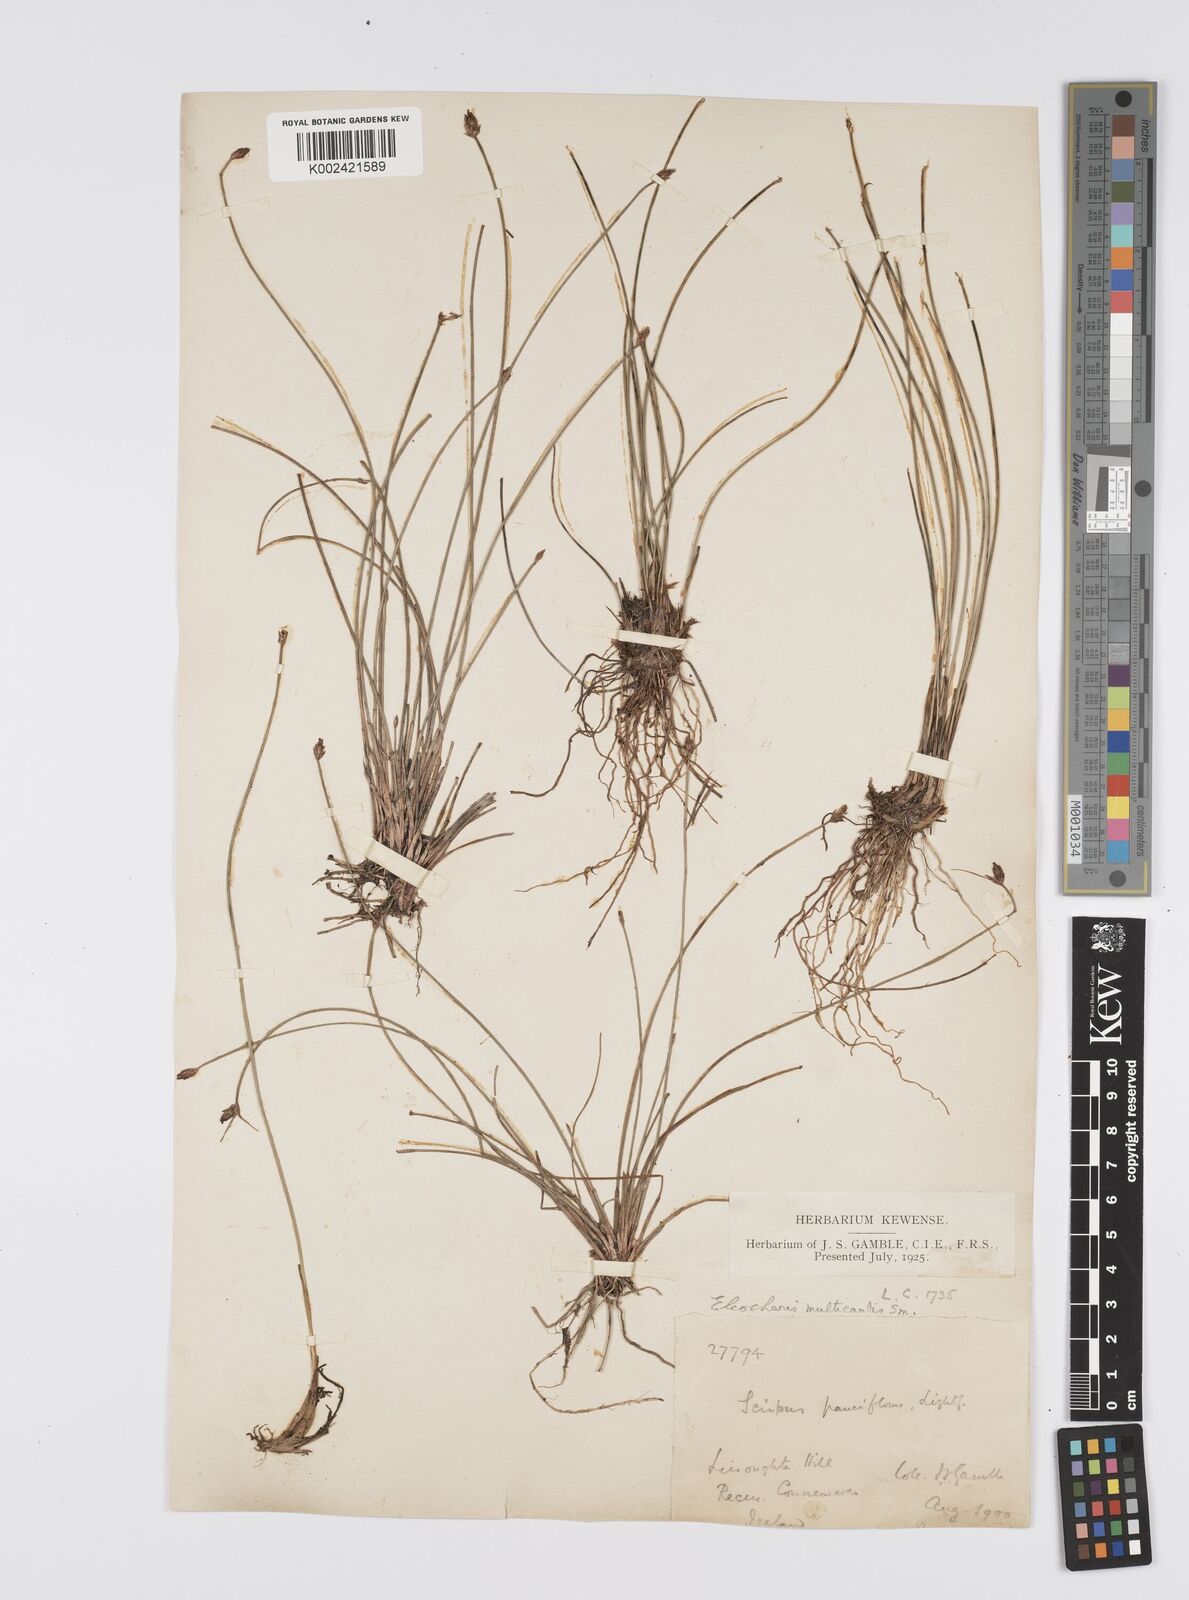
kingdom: Plantae
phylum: Tracheophyta
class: Liliopsida
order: Poales
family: Cyperaceae
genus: Eleocharis
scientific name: Eleocharis multicaulis
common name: Many-stalked spike-rush
